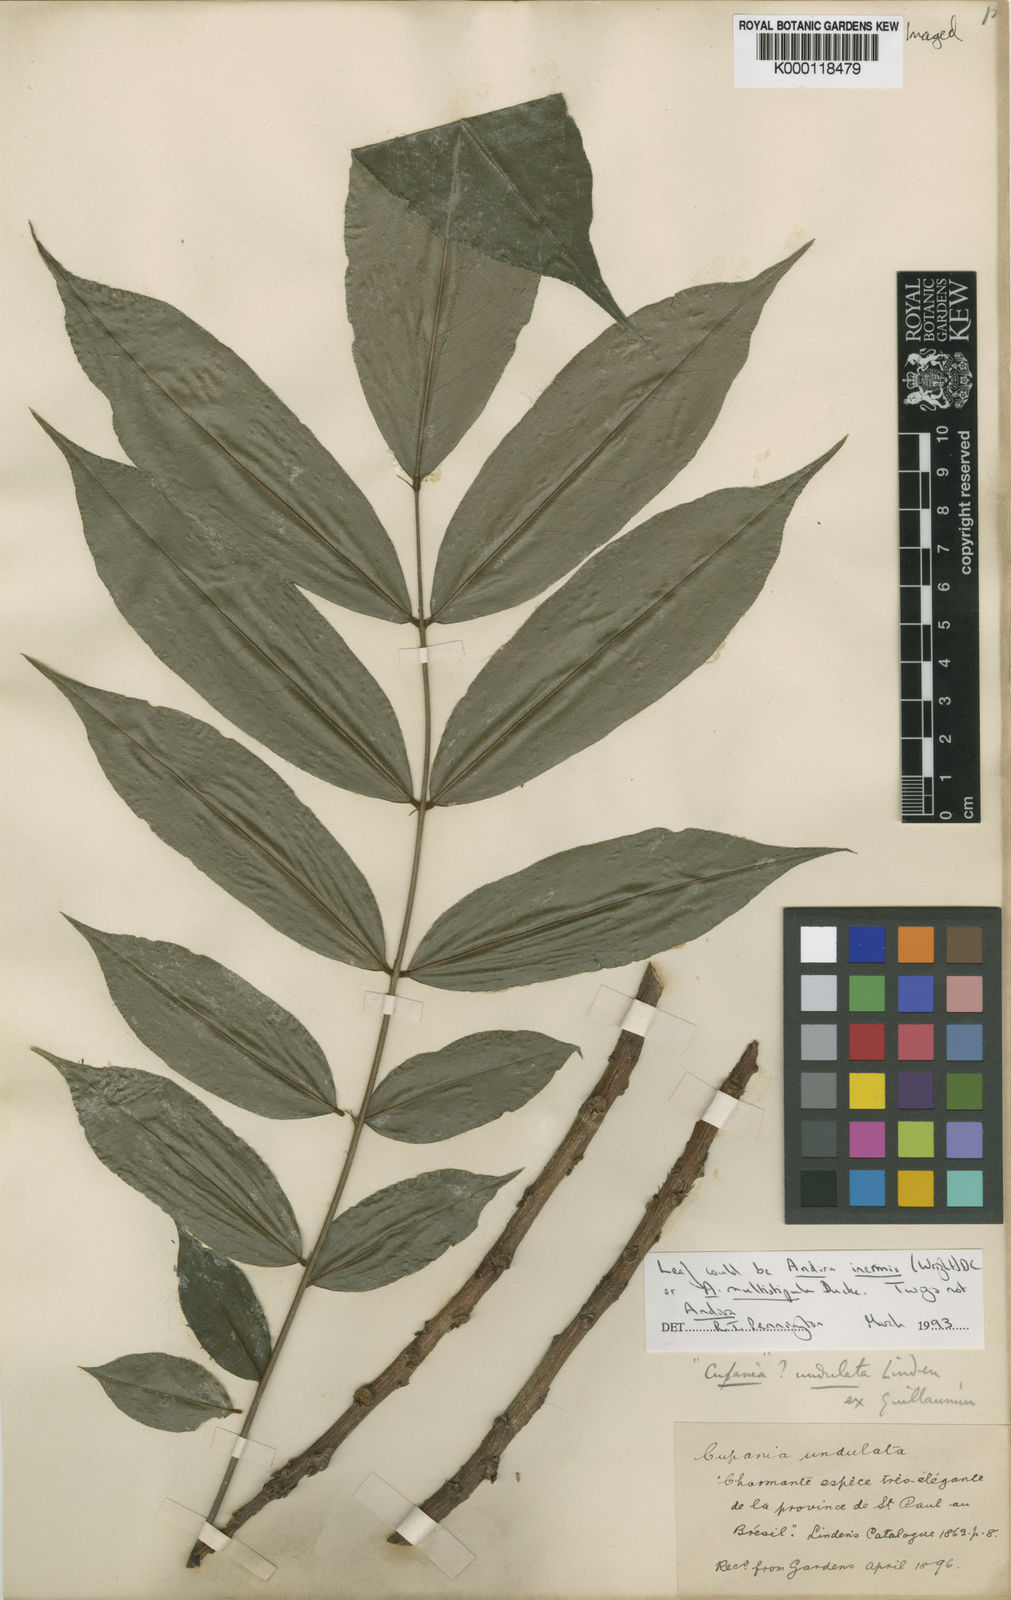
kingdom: Plantae
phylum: Tracheophyta
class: Magnoliopsida
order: Fabales
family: Fabaceae
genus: Andira
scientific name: Andira inermis
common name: Angelin
